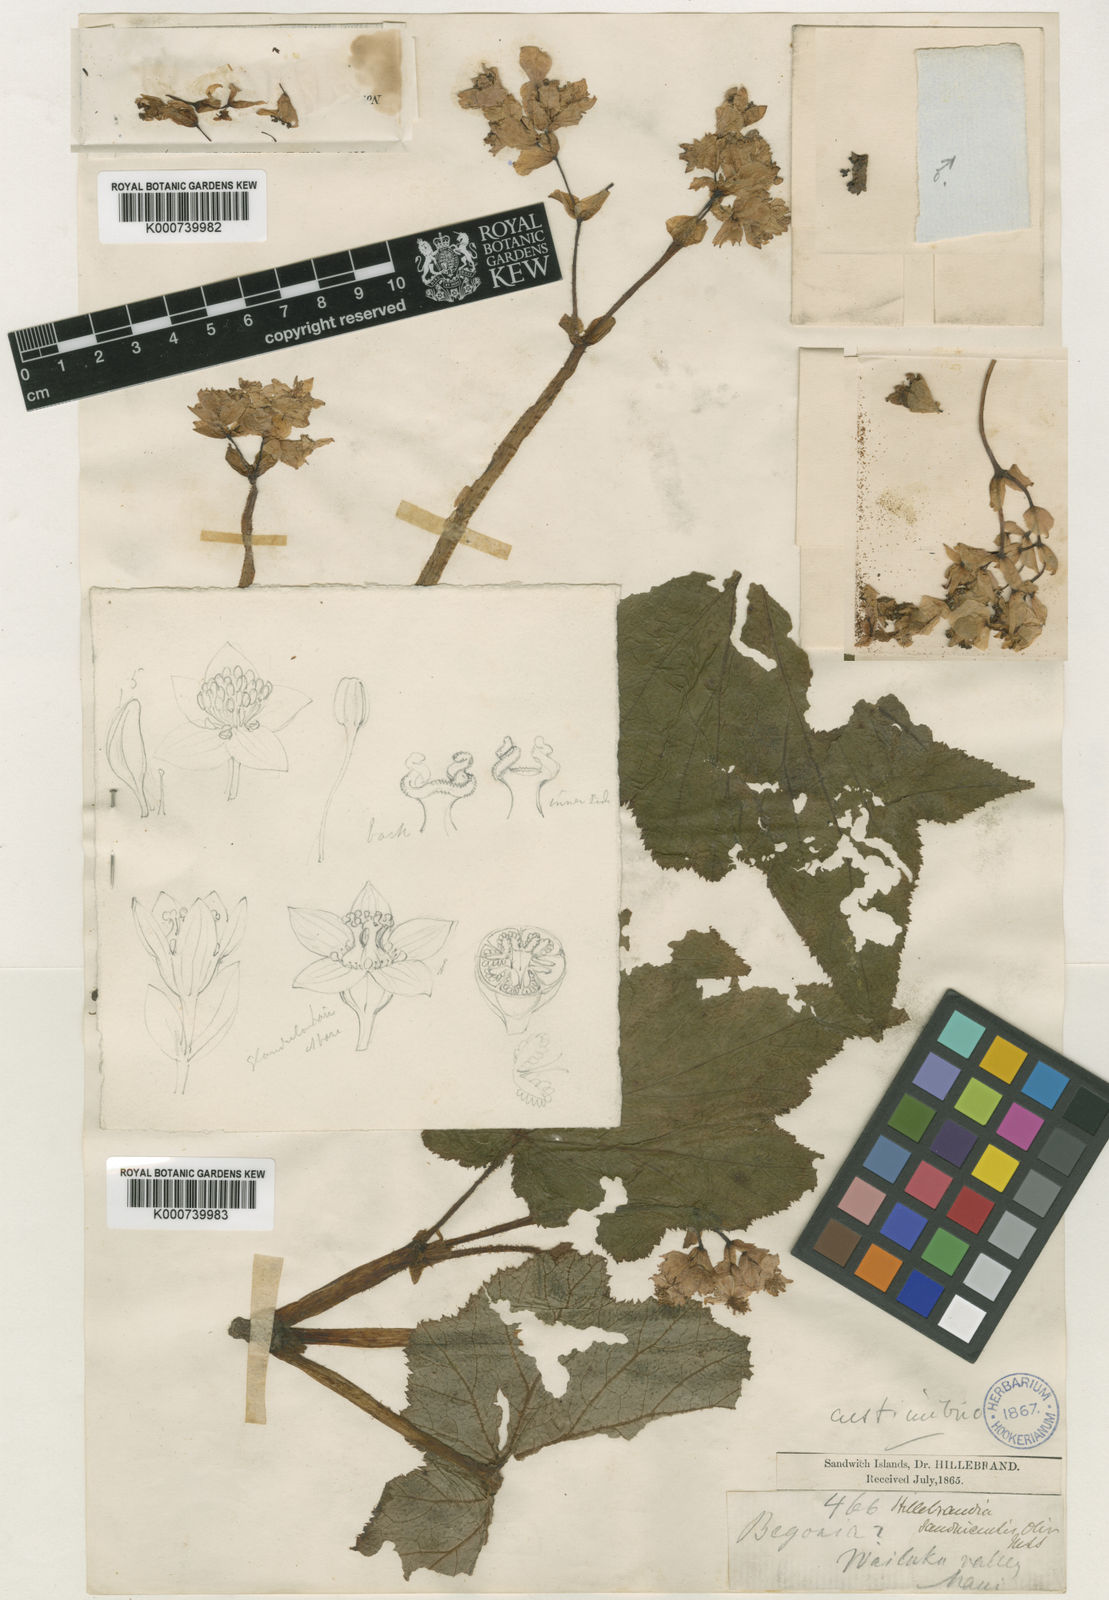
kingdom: Plantae
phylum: Tracheophyta
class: Magnoliopsida
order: Cucurbitales
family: Begoniaceae
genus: Hillebrandia
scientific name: Hillebrandia sandwicensis
